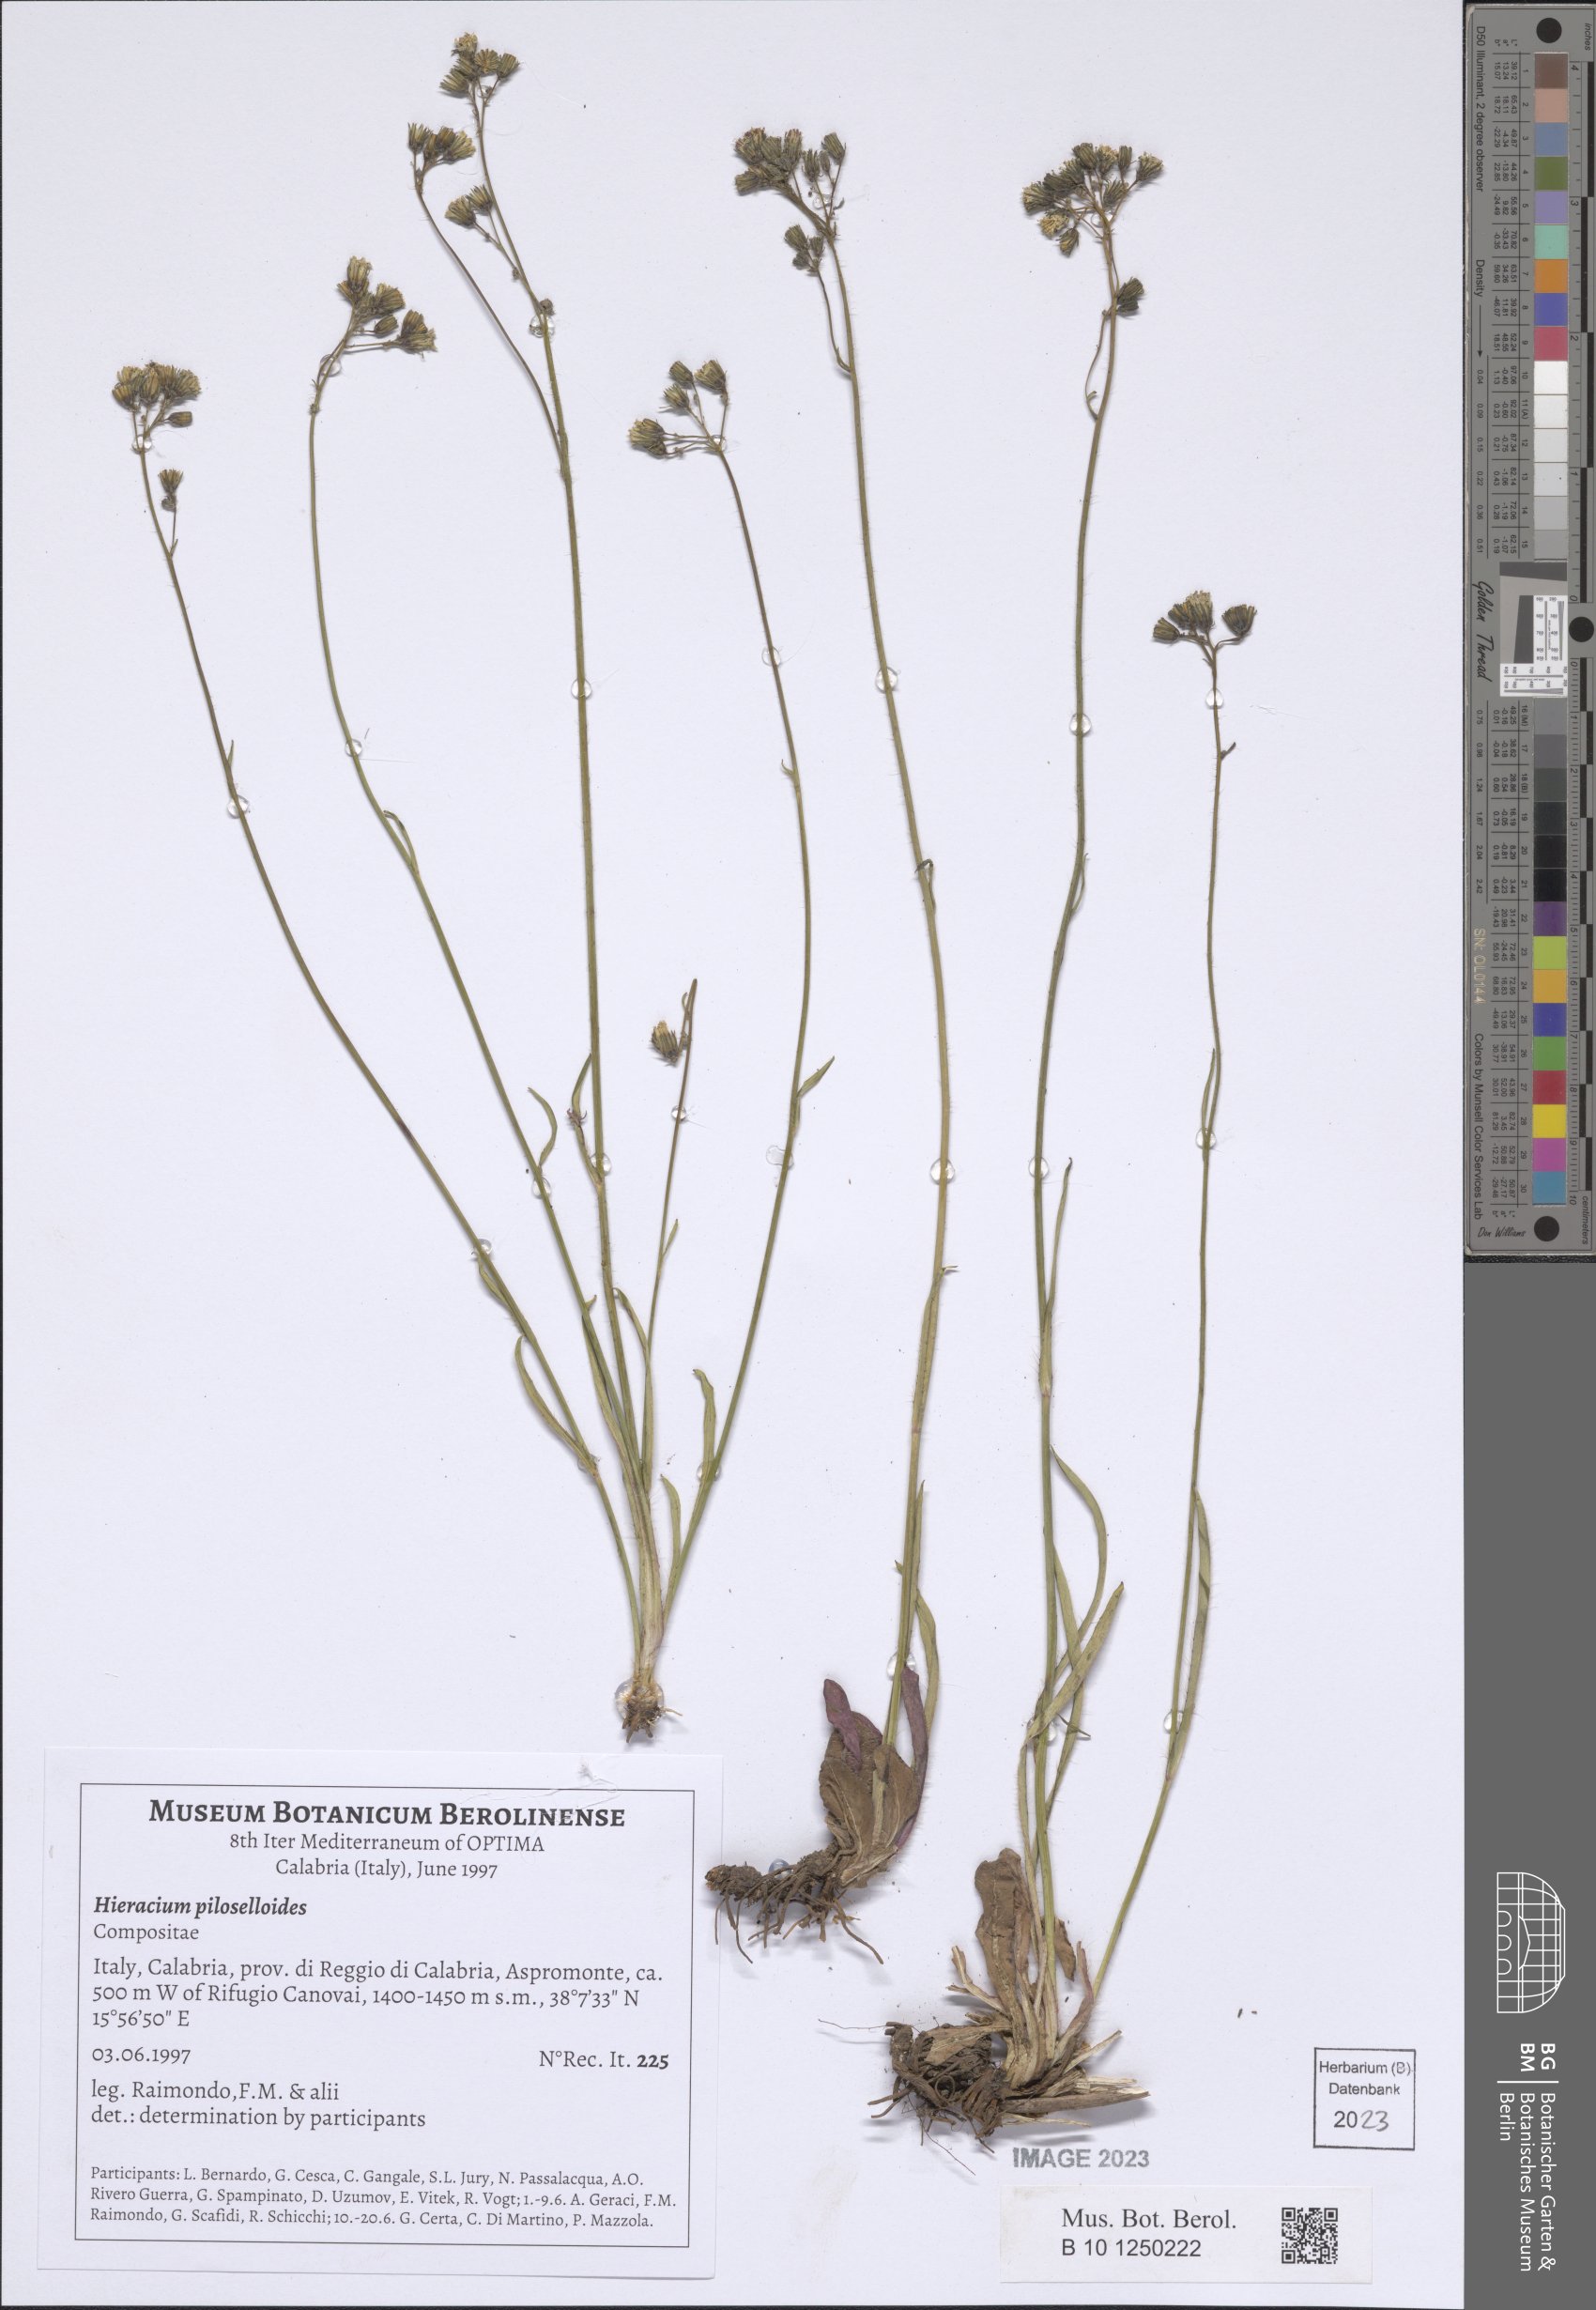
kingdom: Plantae
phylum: Tracheophyta
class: Magnoliopsida
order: Asterales
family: Asteraceae
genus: Pilosella
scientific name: Pilosella piloselloides
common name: Glaucous king-devil
